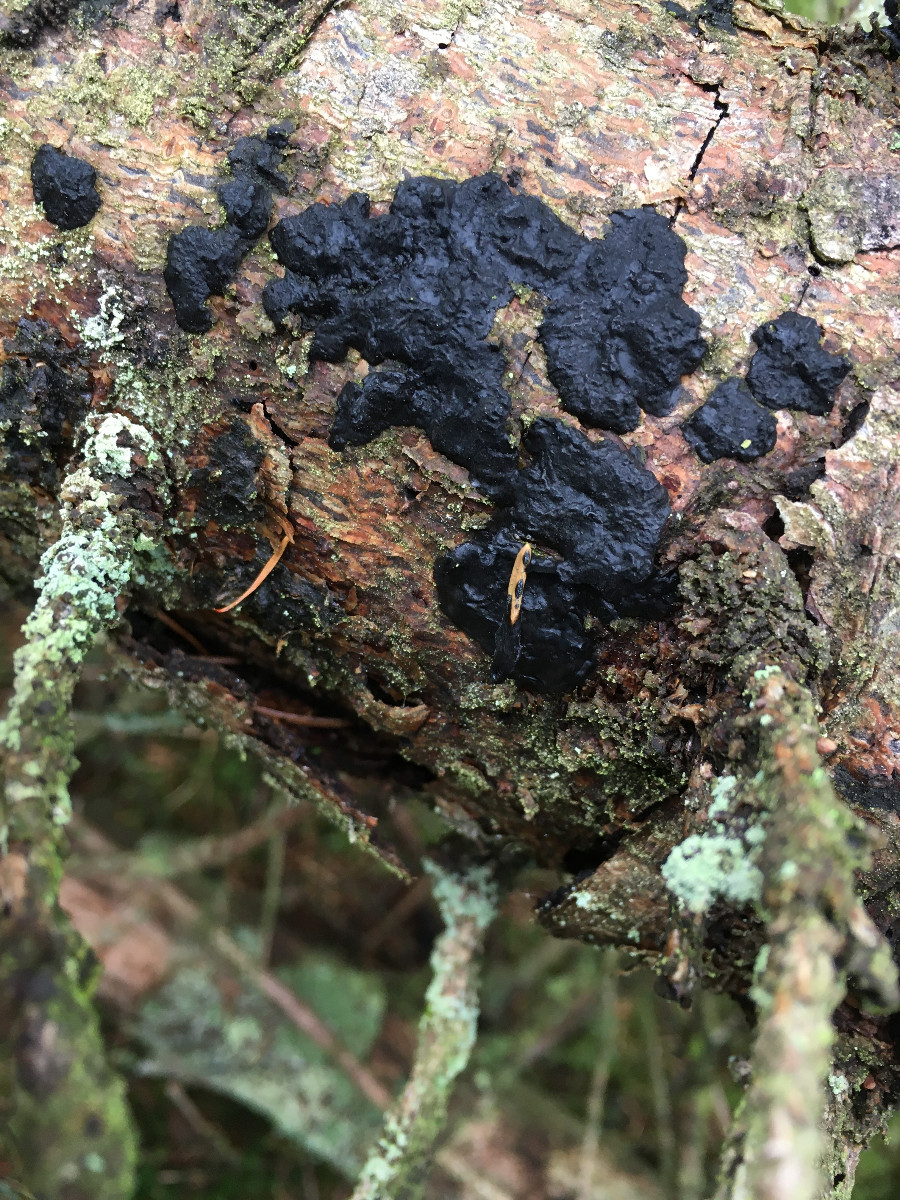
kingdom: Fungi
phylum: Basidiomycota
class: Agaricomycetes
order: Auriculariales
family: Auriculariaceae
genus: Exidia
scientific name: Exidia pithya
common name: gran-bævretop
